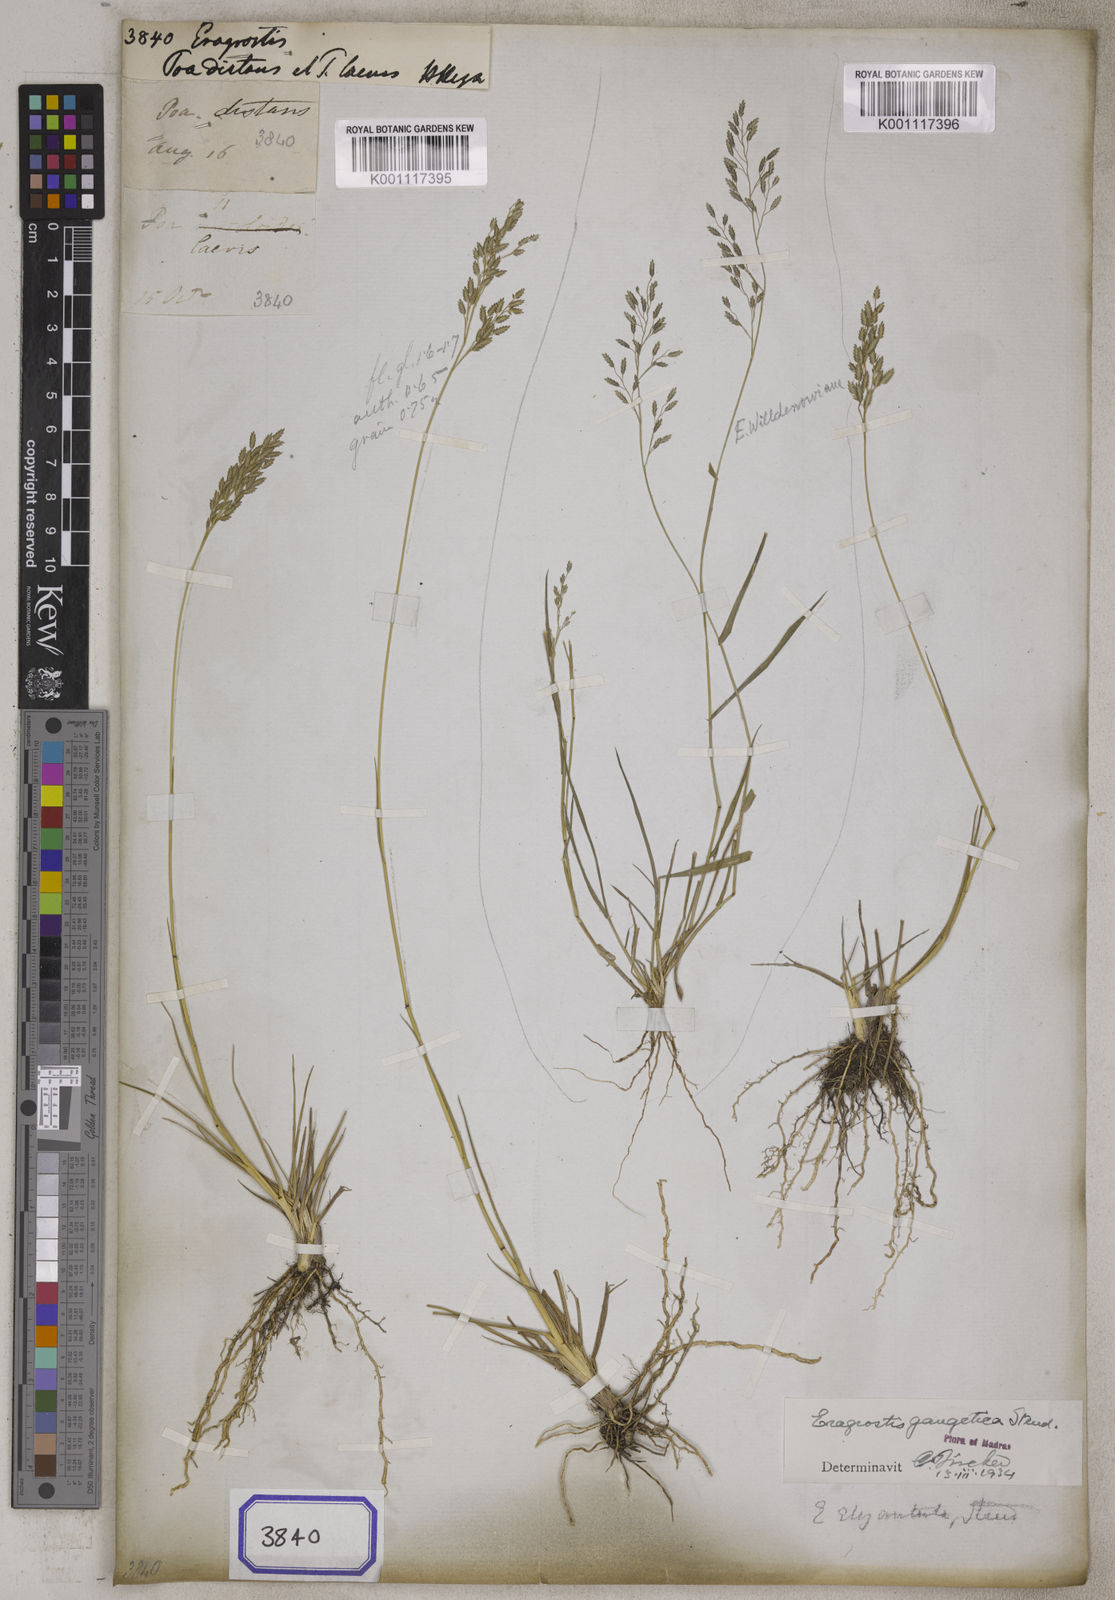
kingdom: Plantae
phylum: Tracheophyta
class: Liliopsida
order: Poales
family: Poaceae
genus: Eragrostis
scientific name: Eragrostis
